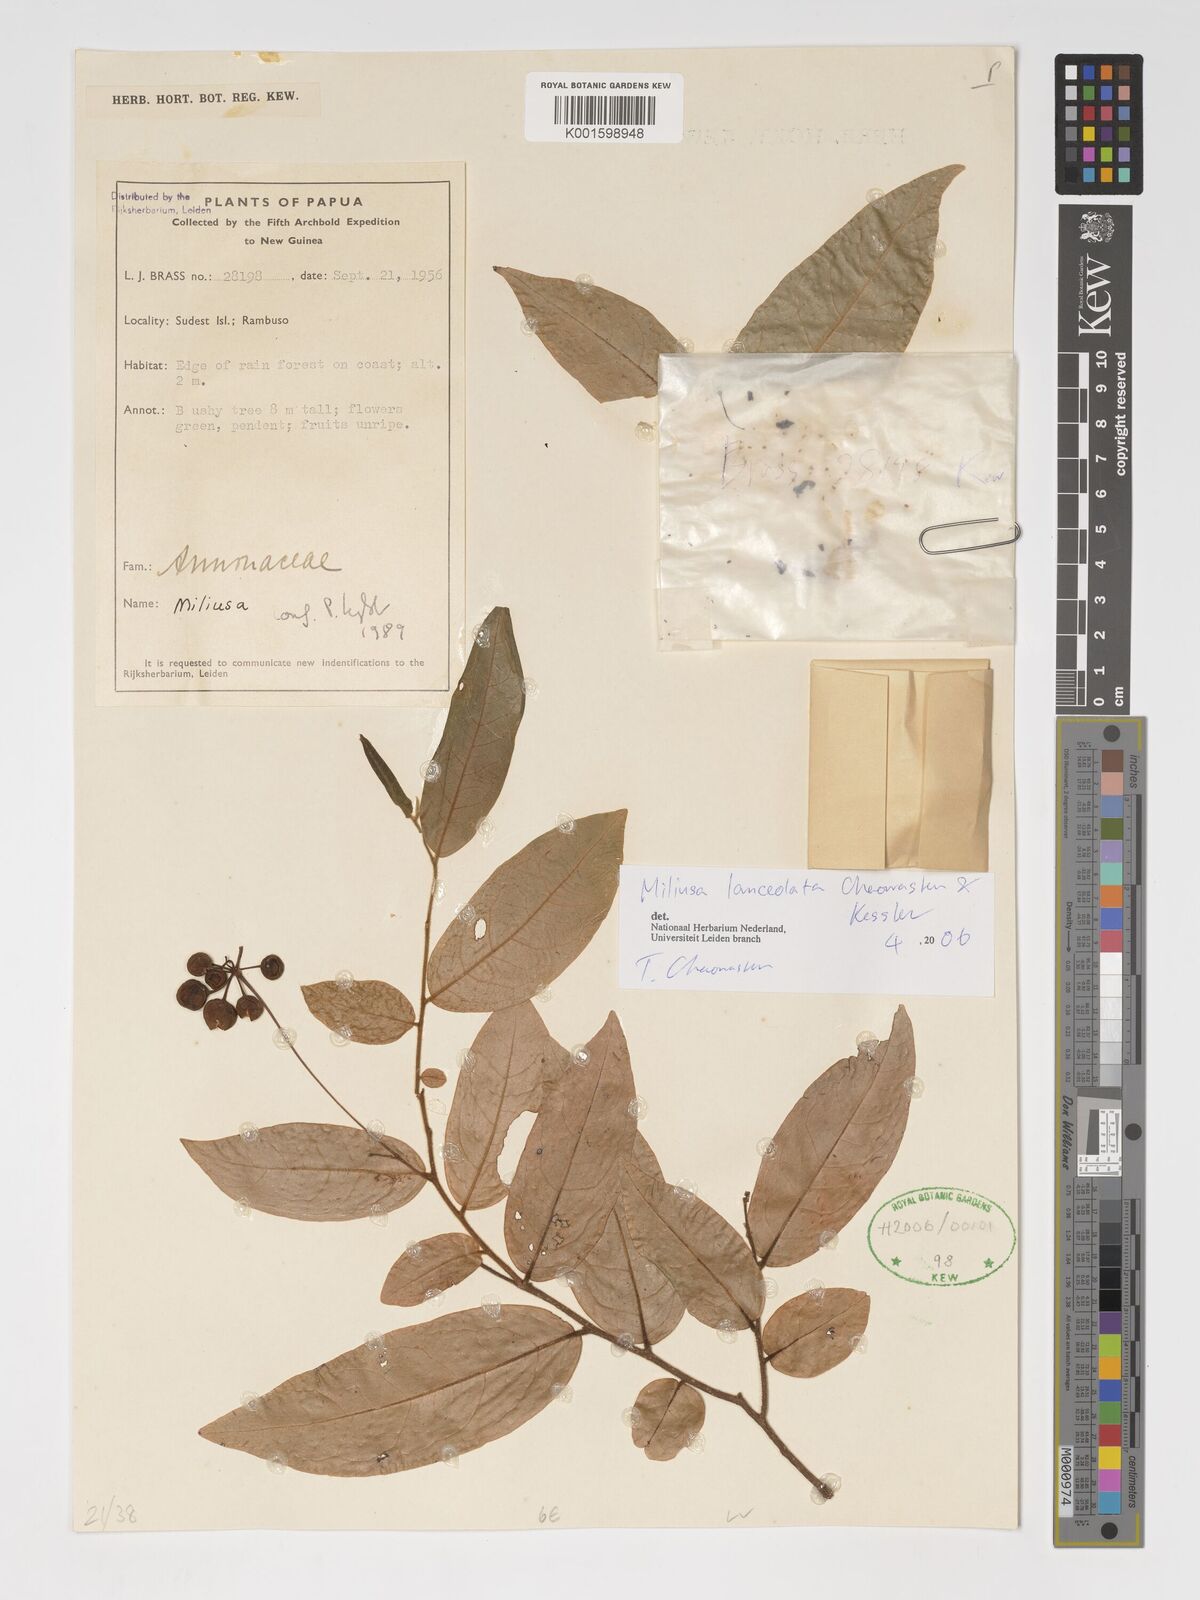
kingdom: Plantae
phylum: Tracheophyta
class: Magnoliopsida
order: Magnoliales
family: Annonaceae
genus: Miliusa
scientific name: Miliusa lanceolata
